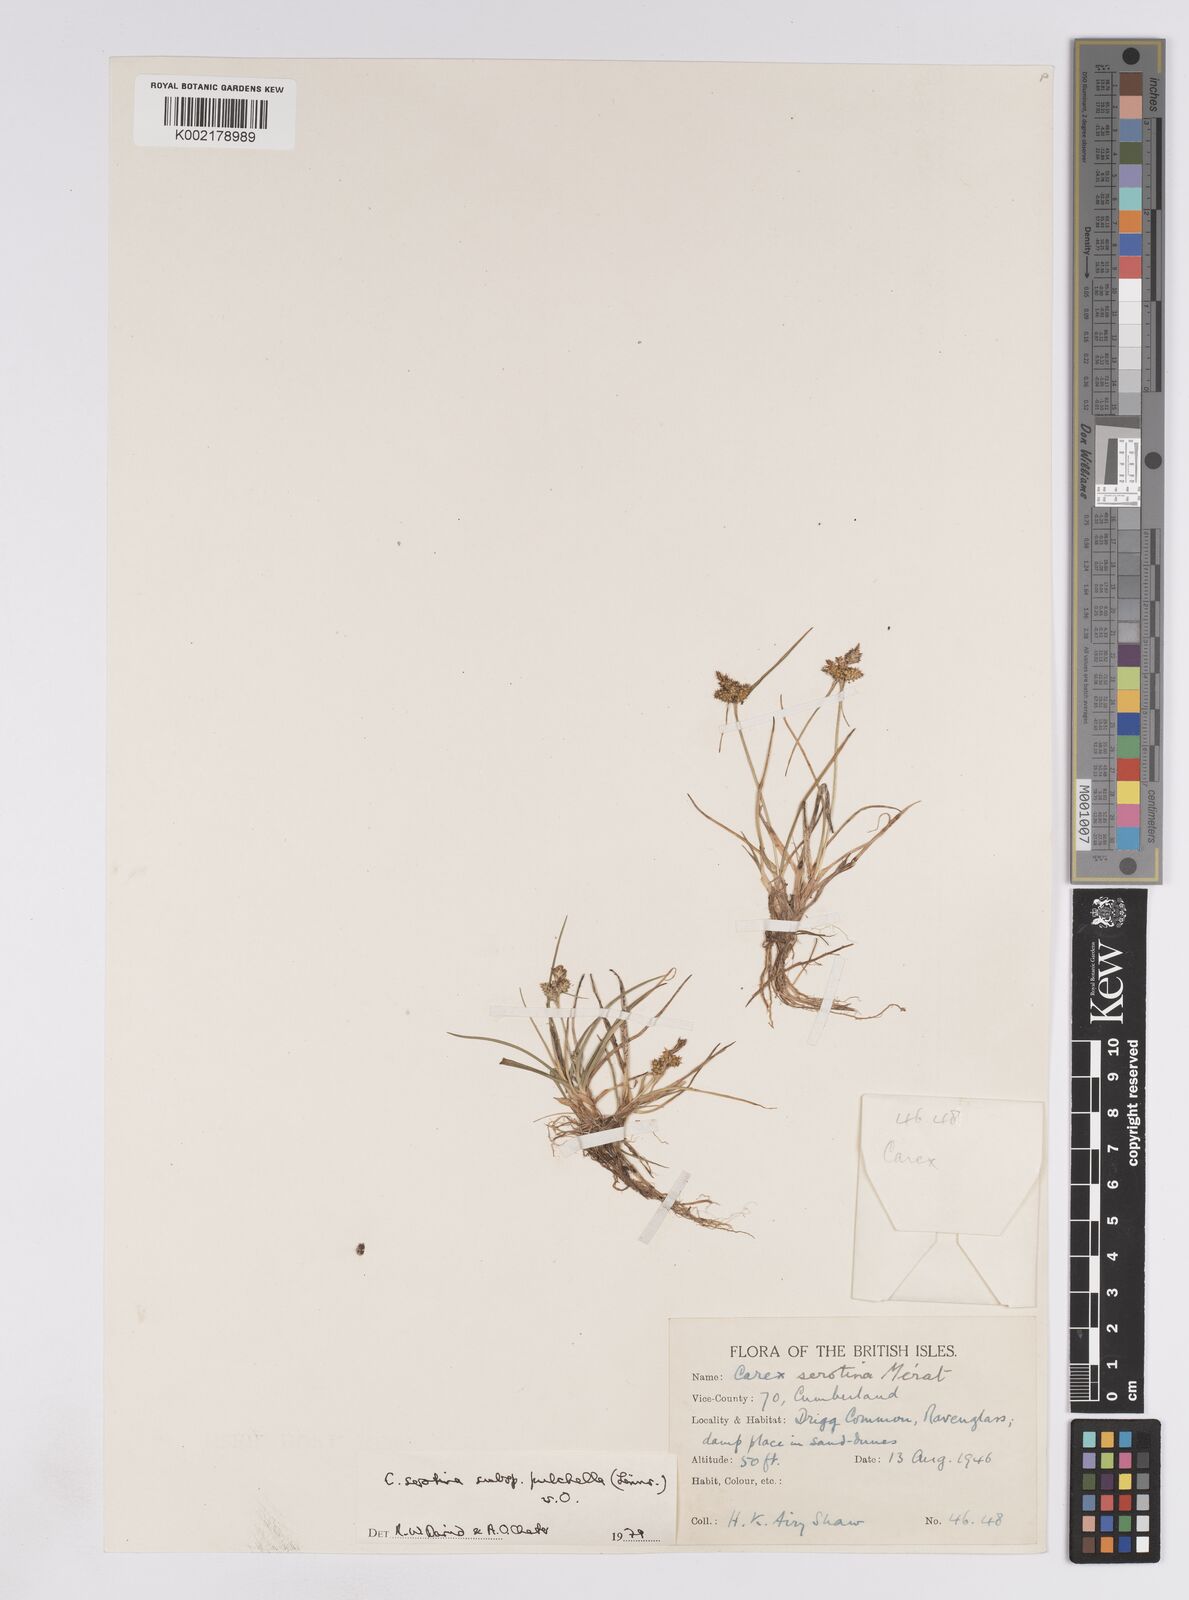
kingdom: Plantae
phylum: Tracheophyta
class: Liliopsida
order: Poales
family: Cyperaceae
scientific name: Cyperaceae
